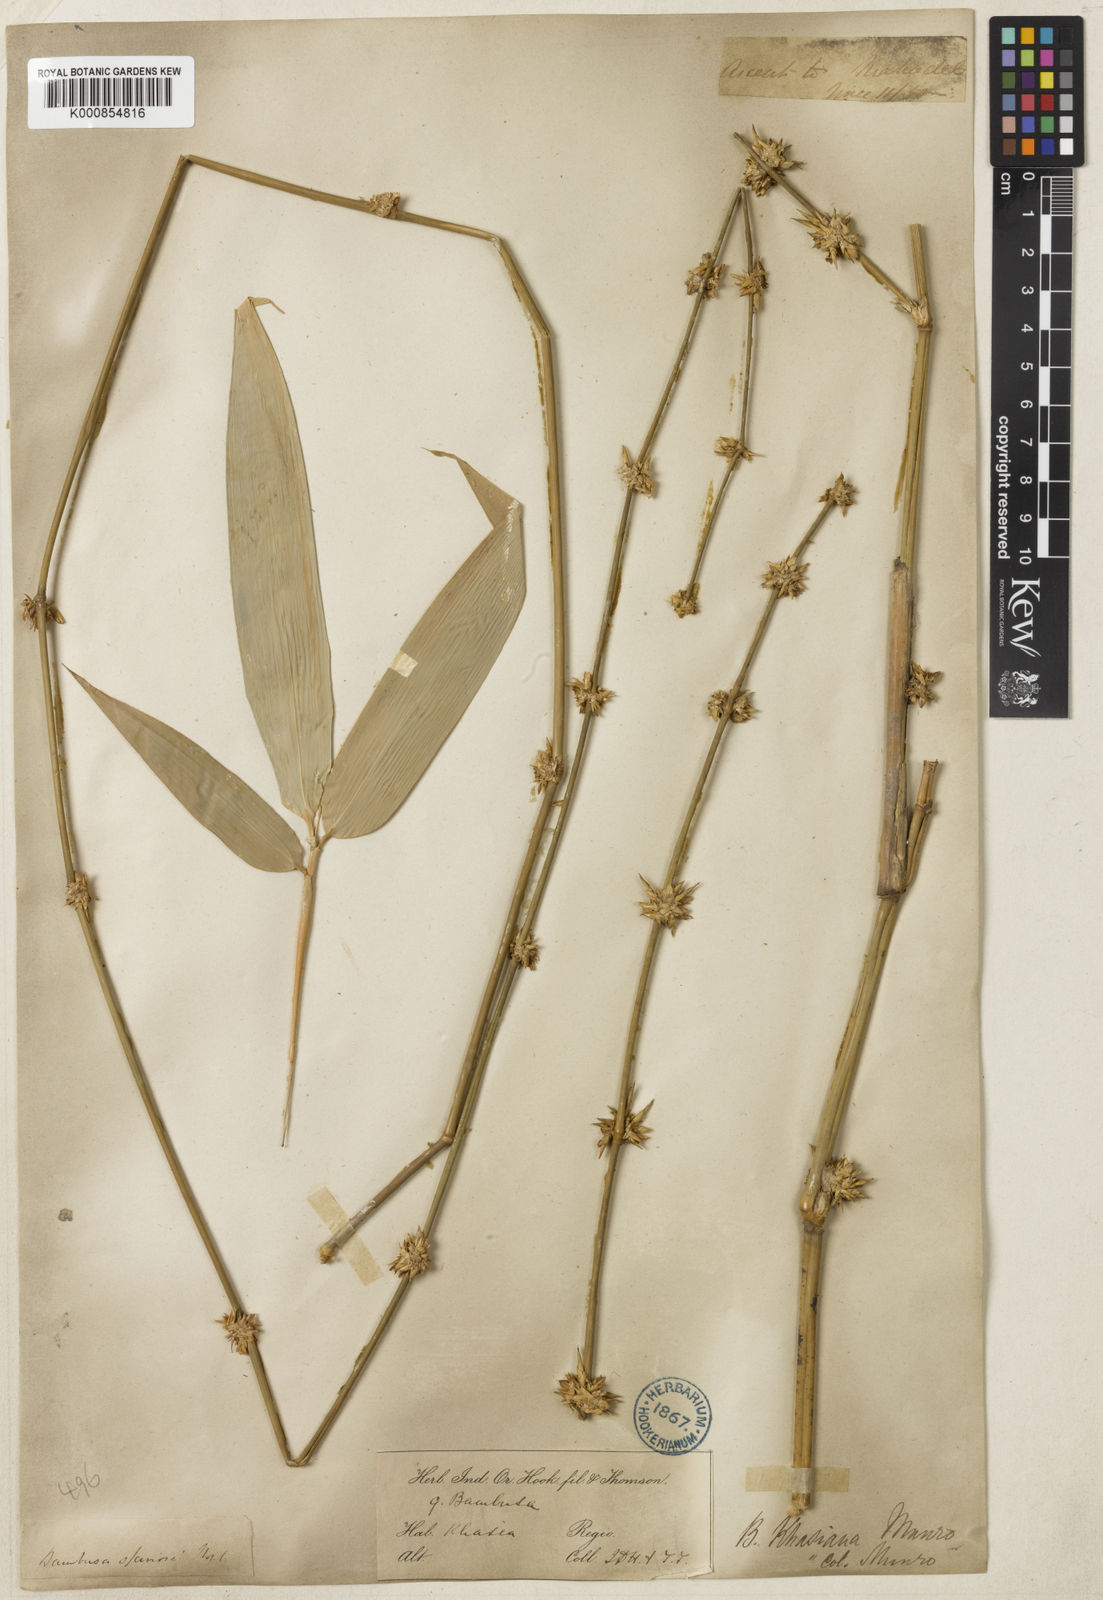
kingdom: Plantae
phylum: Tracheophyta
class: Liliopsida
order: Poales
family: Poaceae
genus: Bambusa
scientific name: Bambusa khasiana
